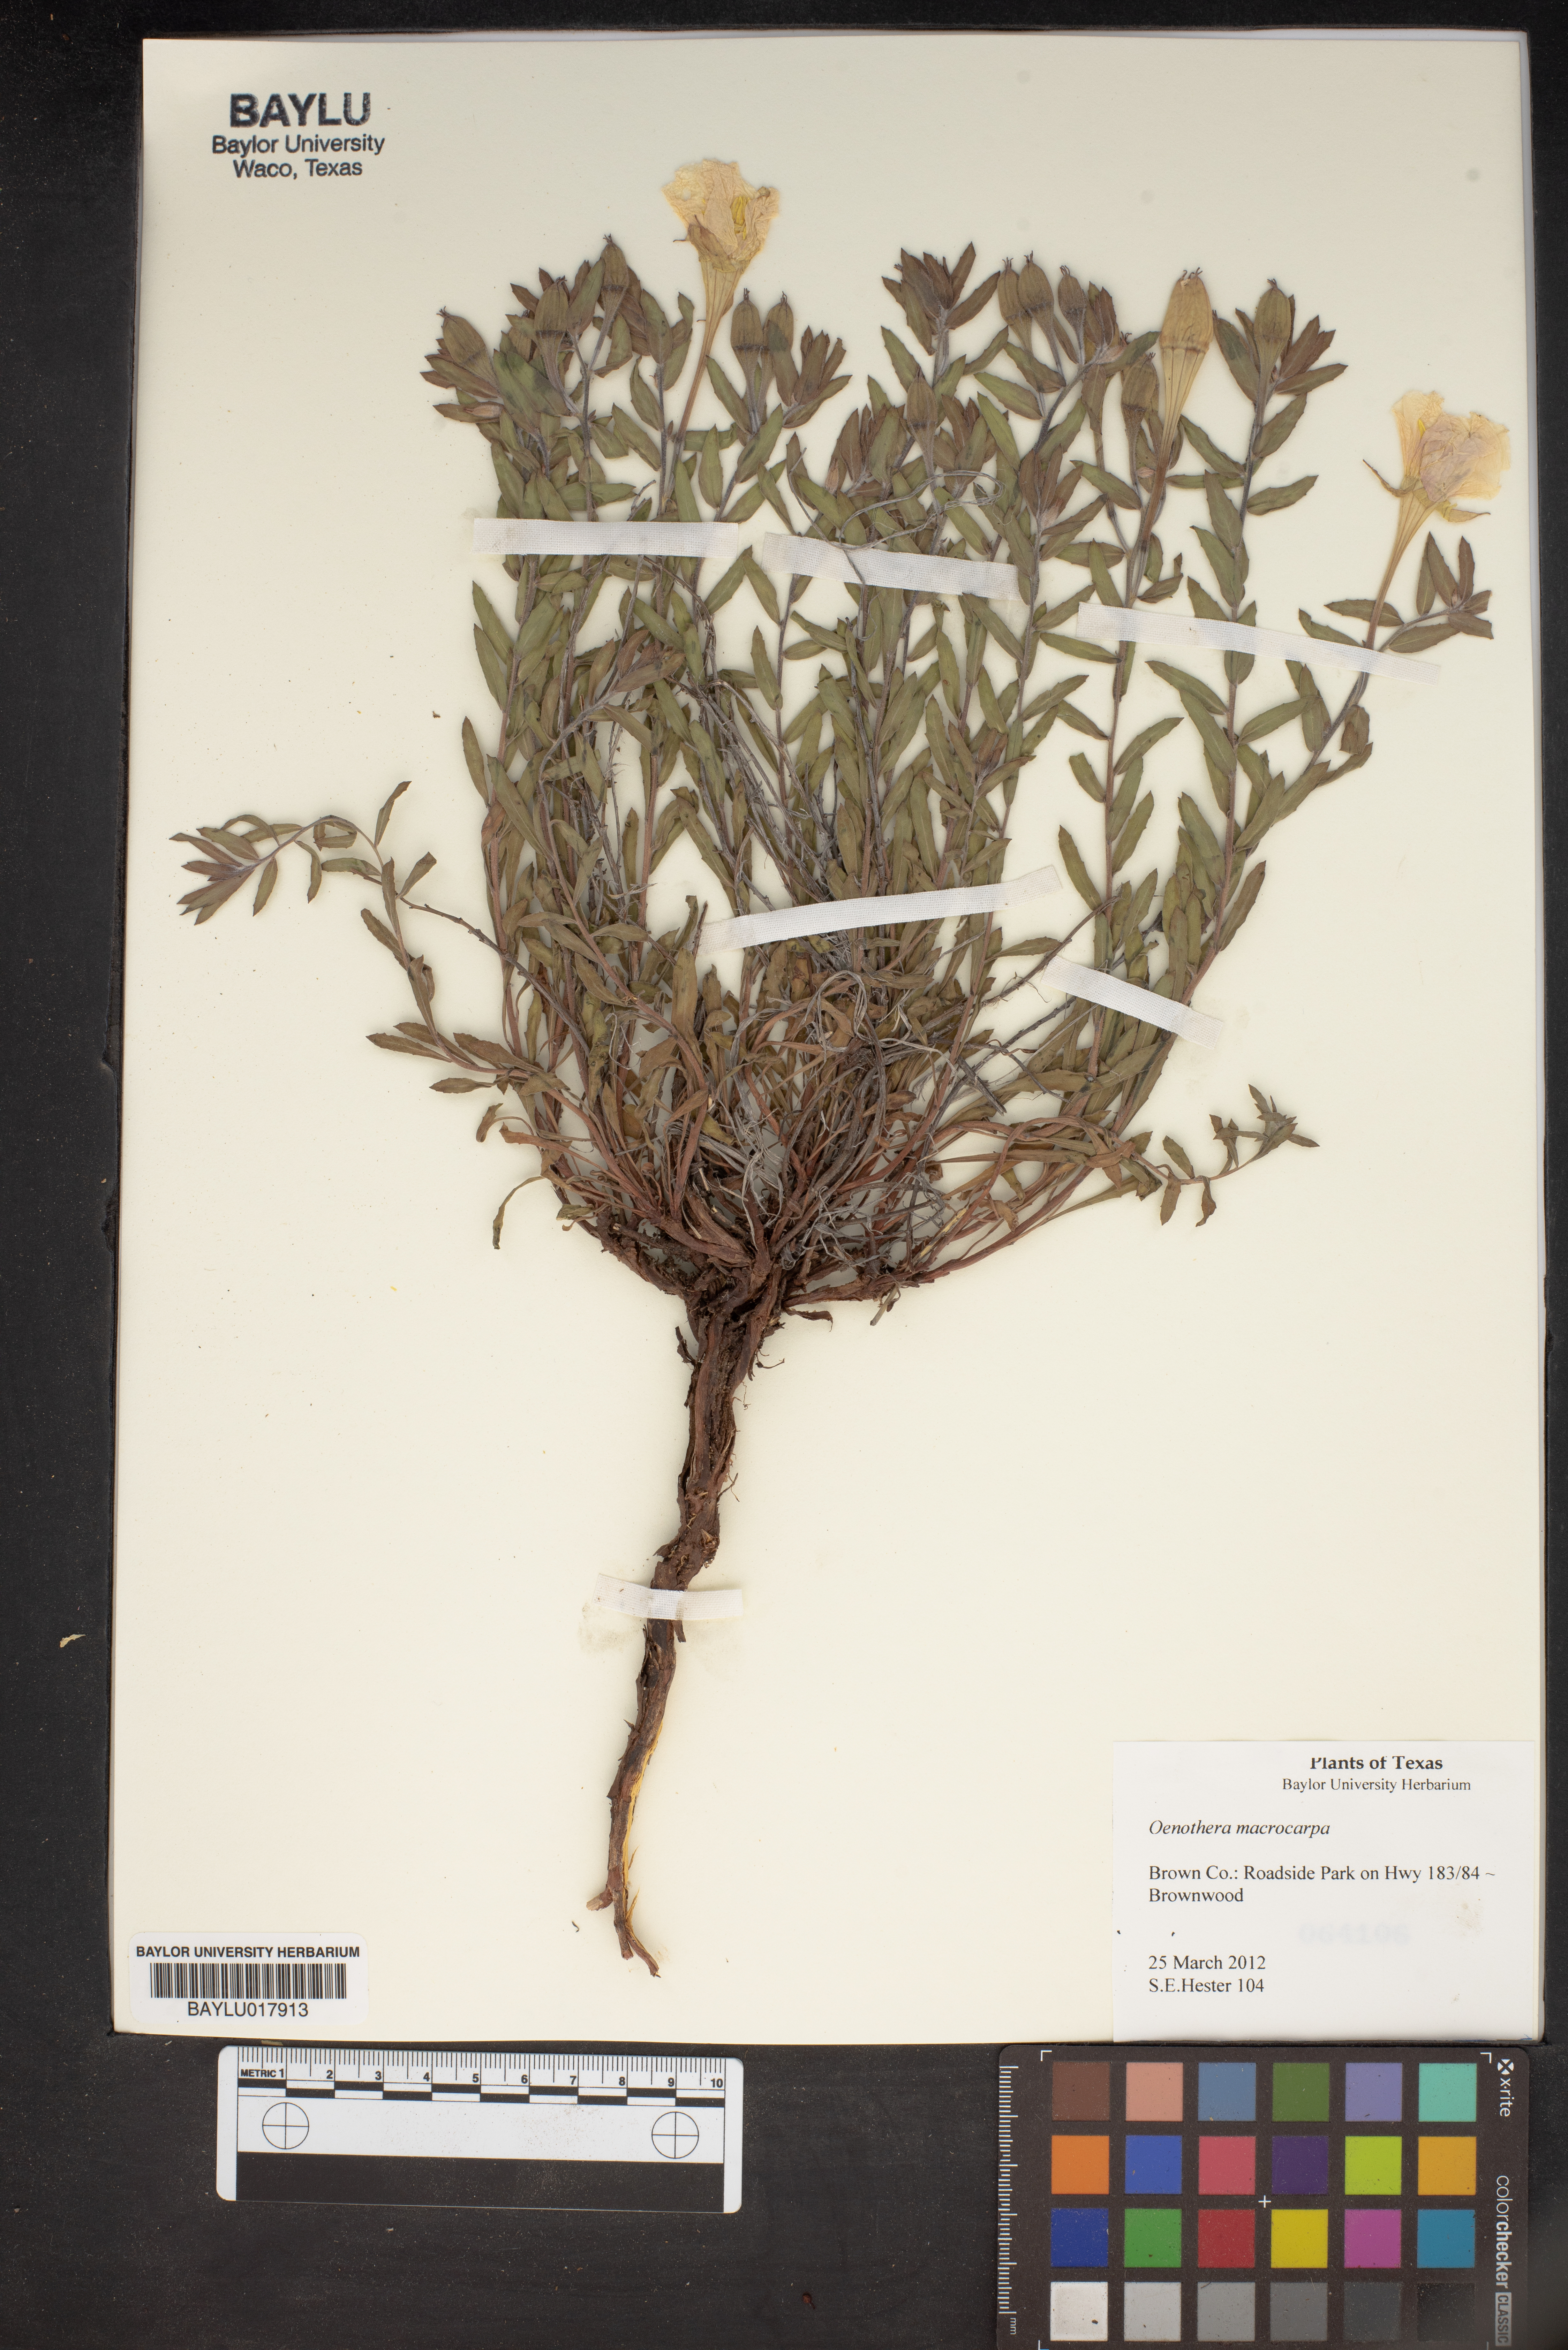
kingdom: Plantae
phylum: Tracheophyta
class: Magnoliopsida
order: Myrtales
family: Onagraceae
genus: Oenothera
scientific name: Oenothera macrocarpa
